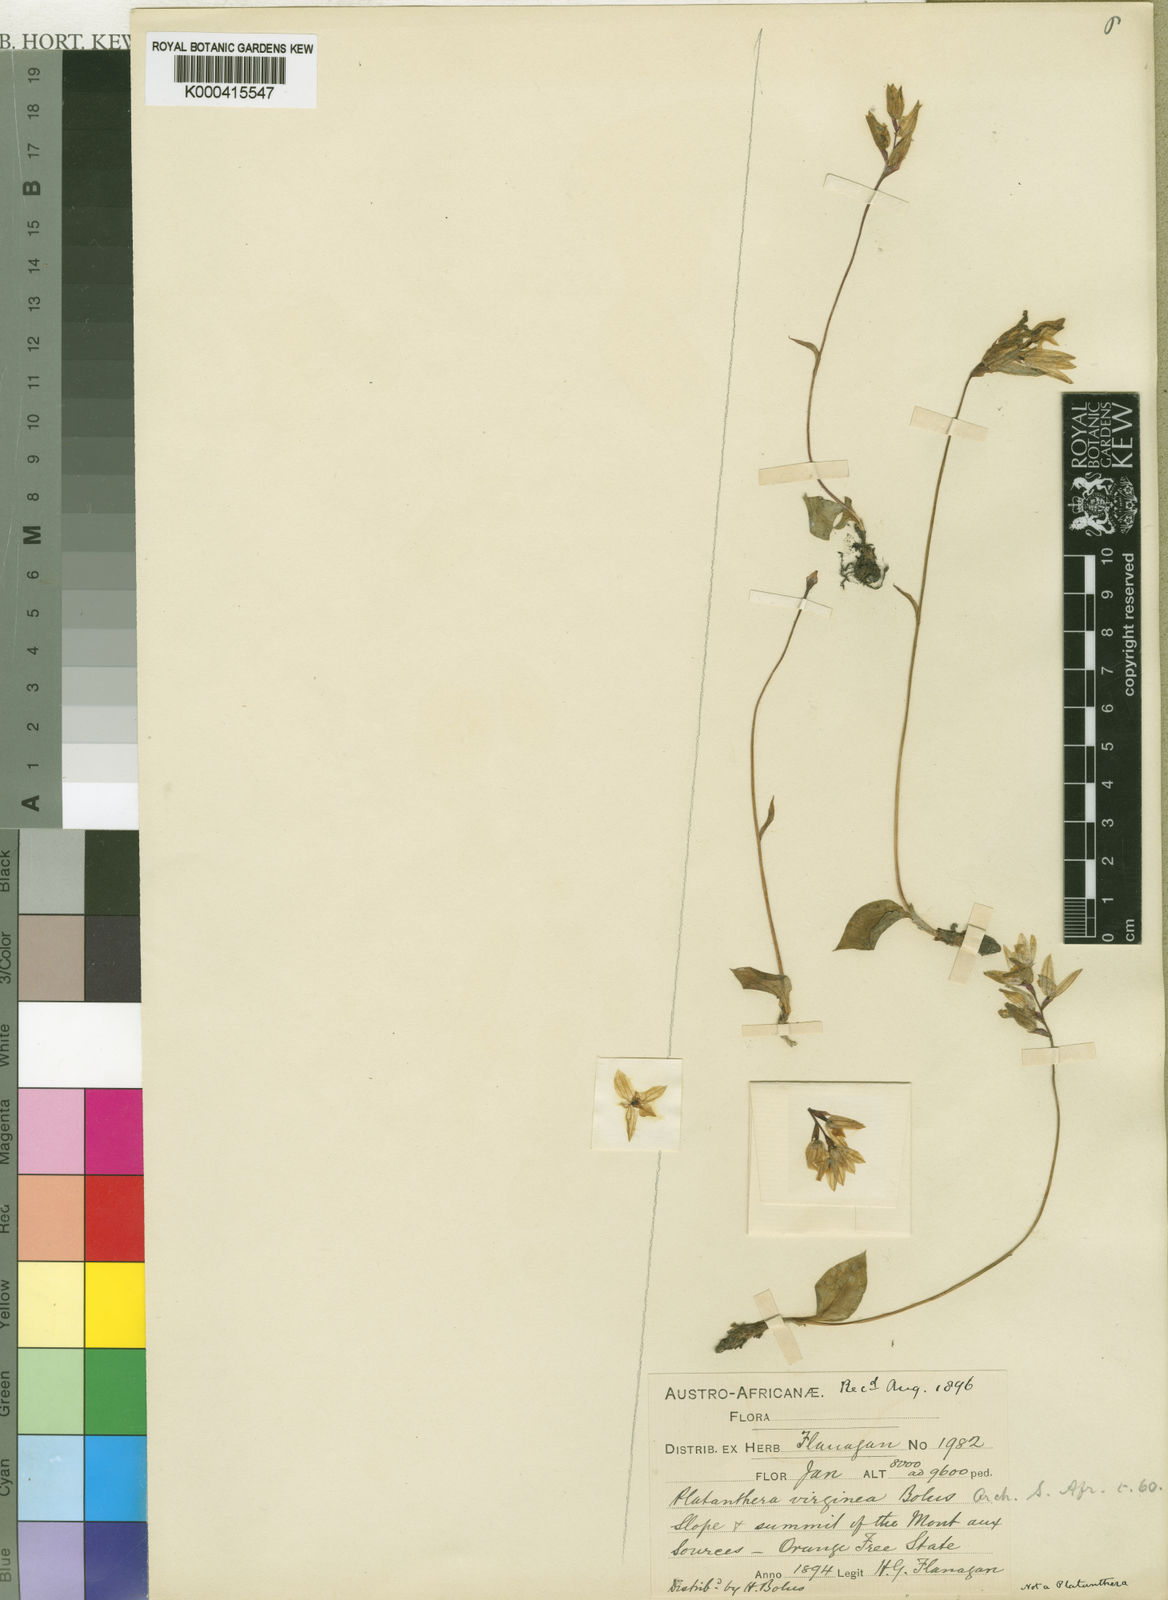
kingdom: Plantae
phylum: Tracheophyta
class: Liliopsida
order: Asparagales
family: Orchidaceae
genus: Dracomonticola
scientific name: Dracomonticola virginea
